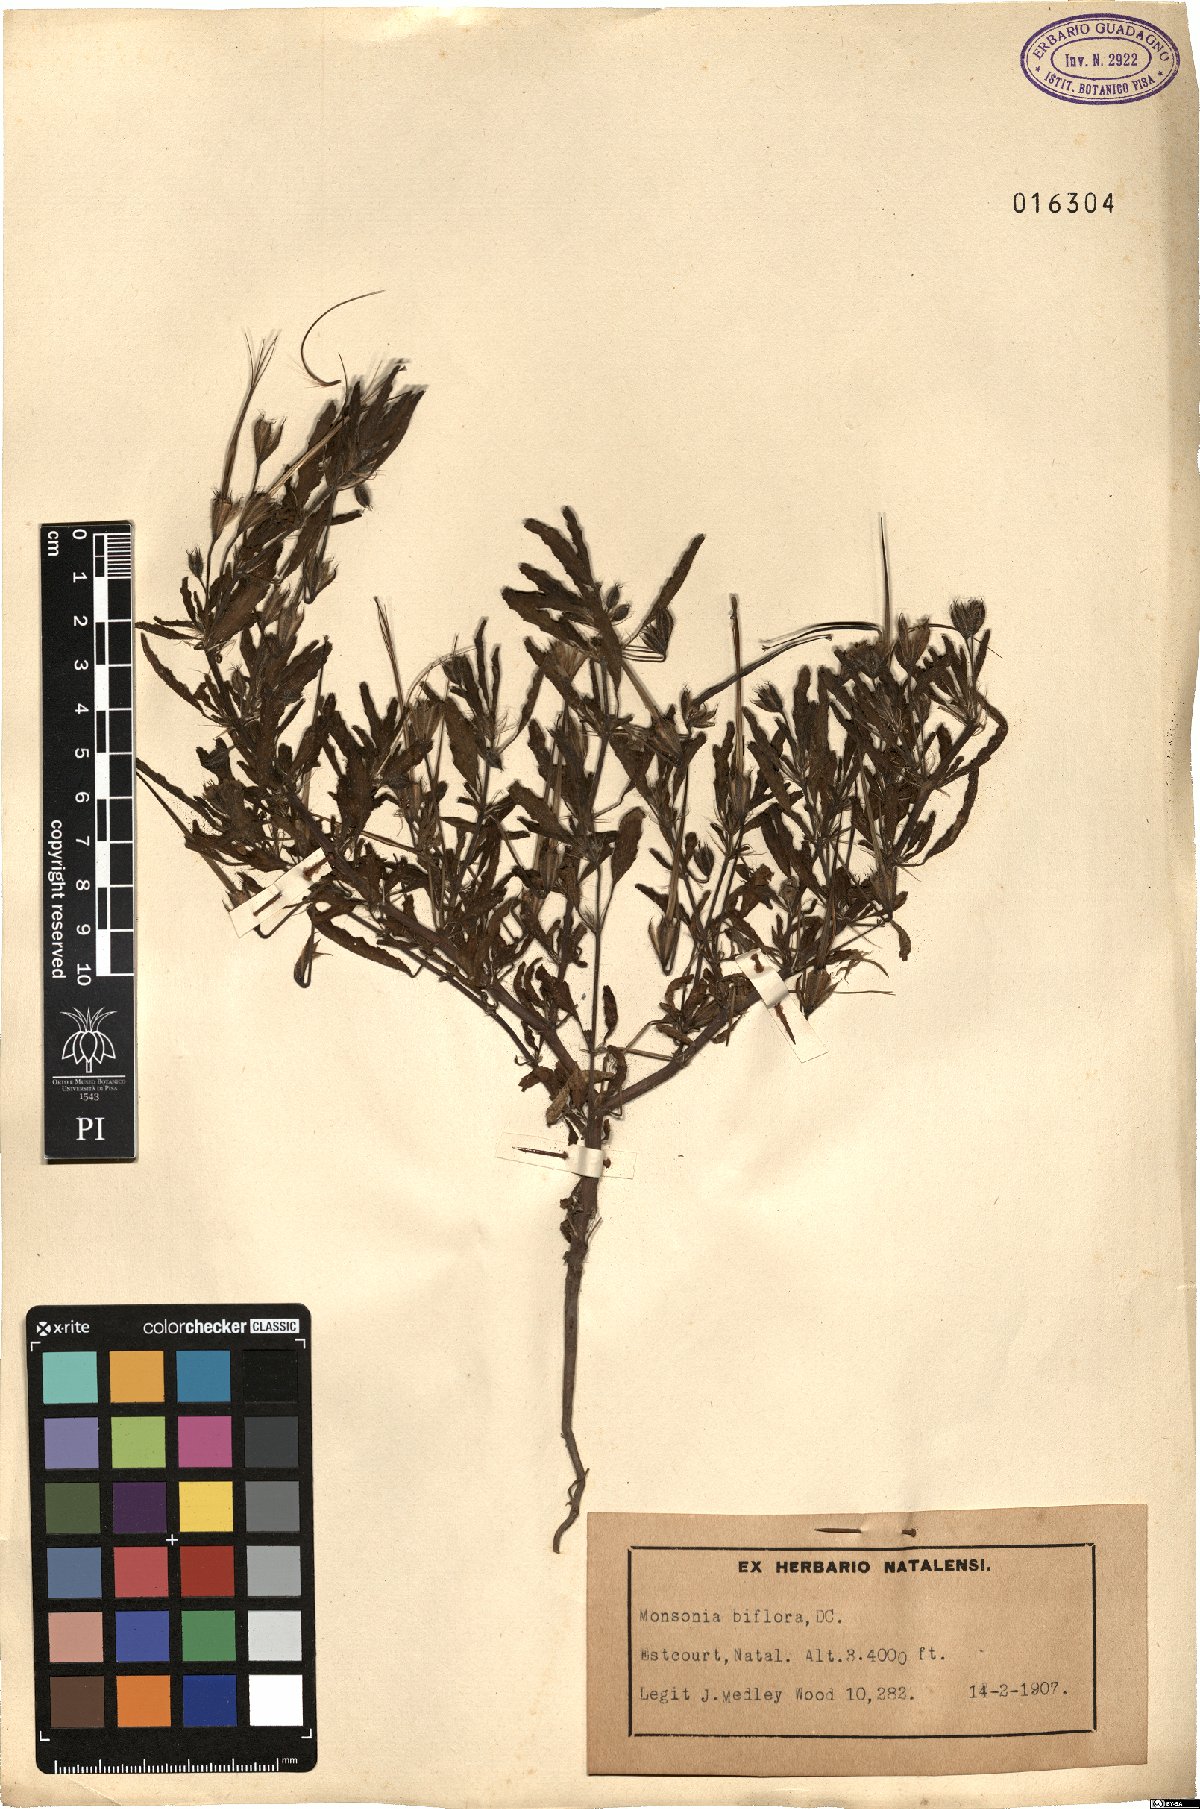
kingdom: Plantae
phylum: Tracheophyta
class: Magnoliopsida
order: Geraniales
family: Geraniaceae
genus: Monsonia
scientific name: Monsonia biflora
